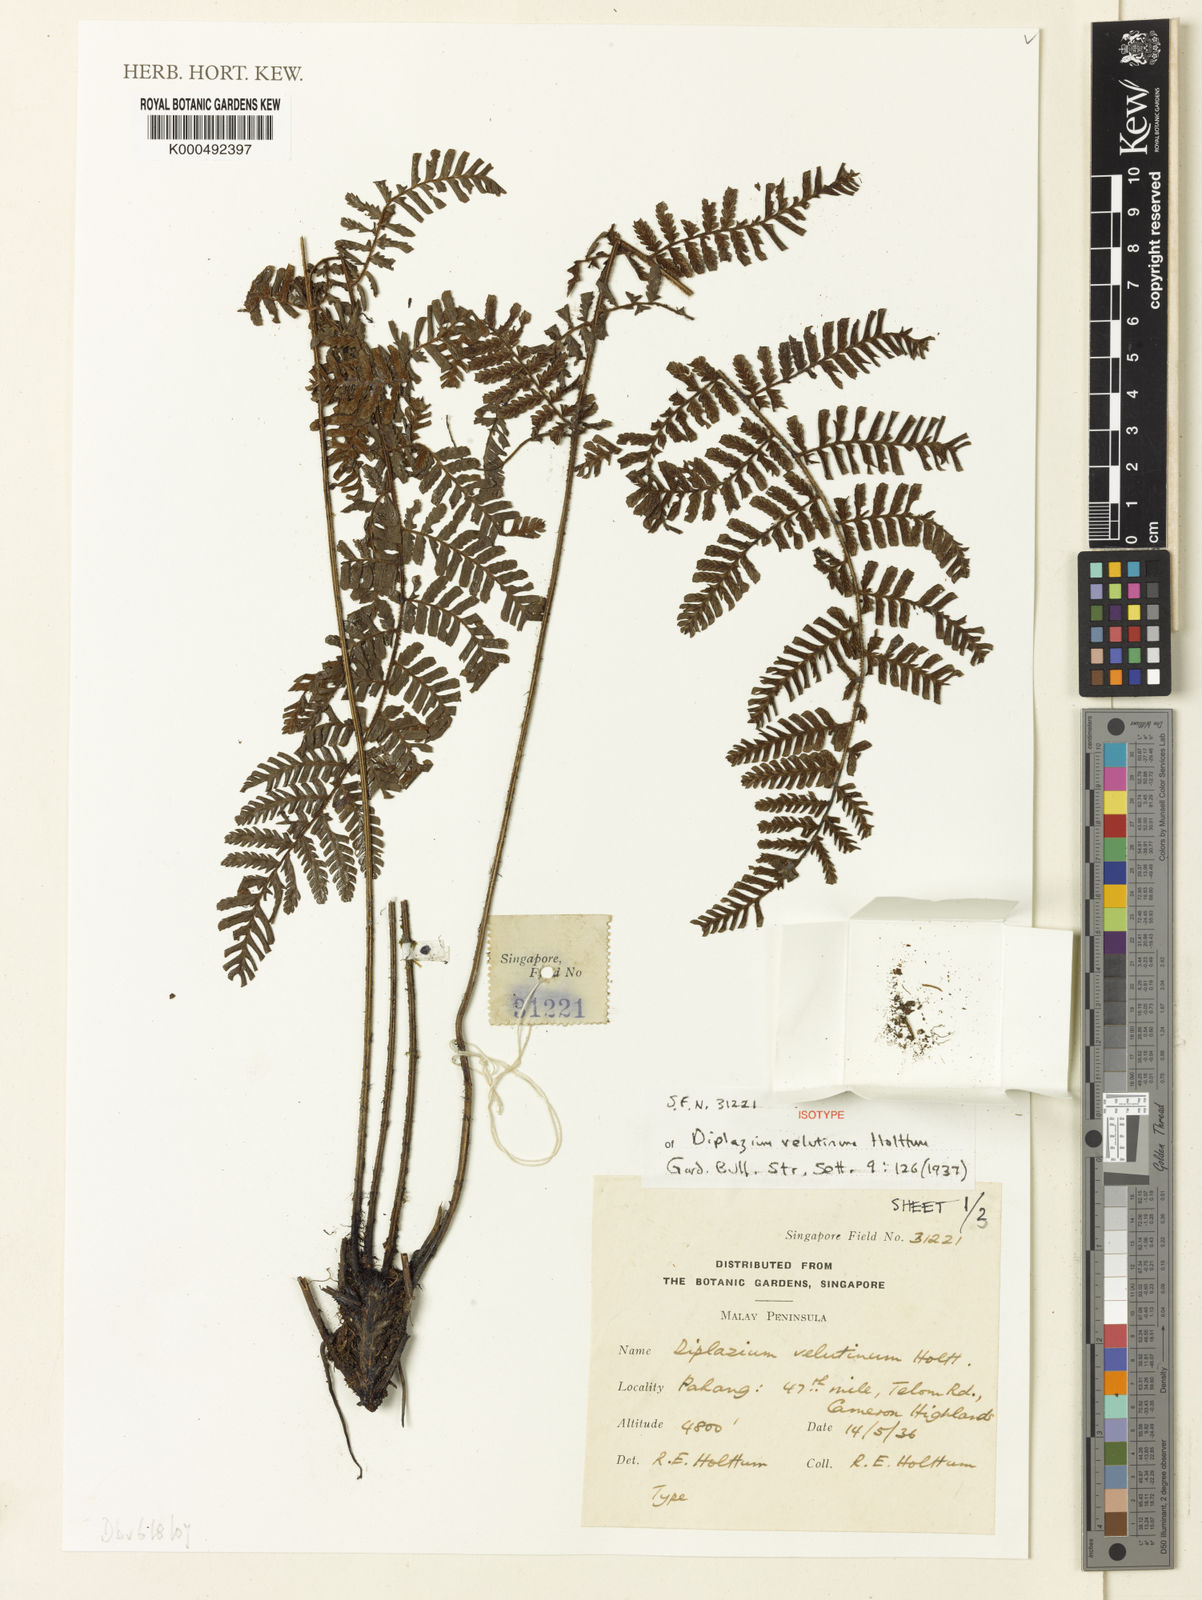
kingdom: Plantae
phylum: Tracheophyta
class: Polypodiopsida
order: Polypodiales
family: Athyriaceae
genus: Diplazium
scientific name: Diplazium velutinum
